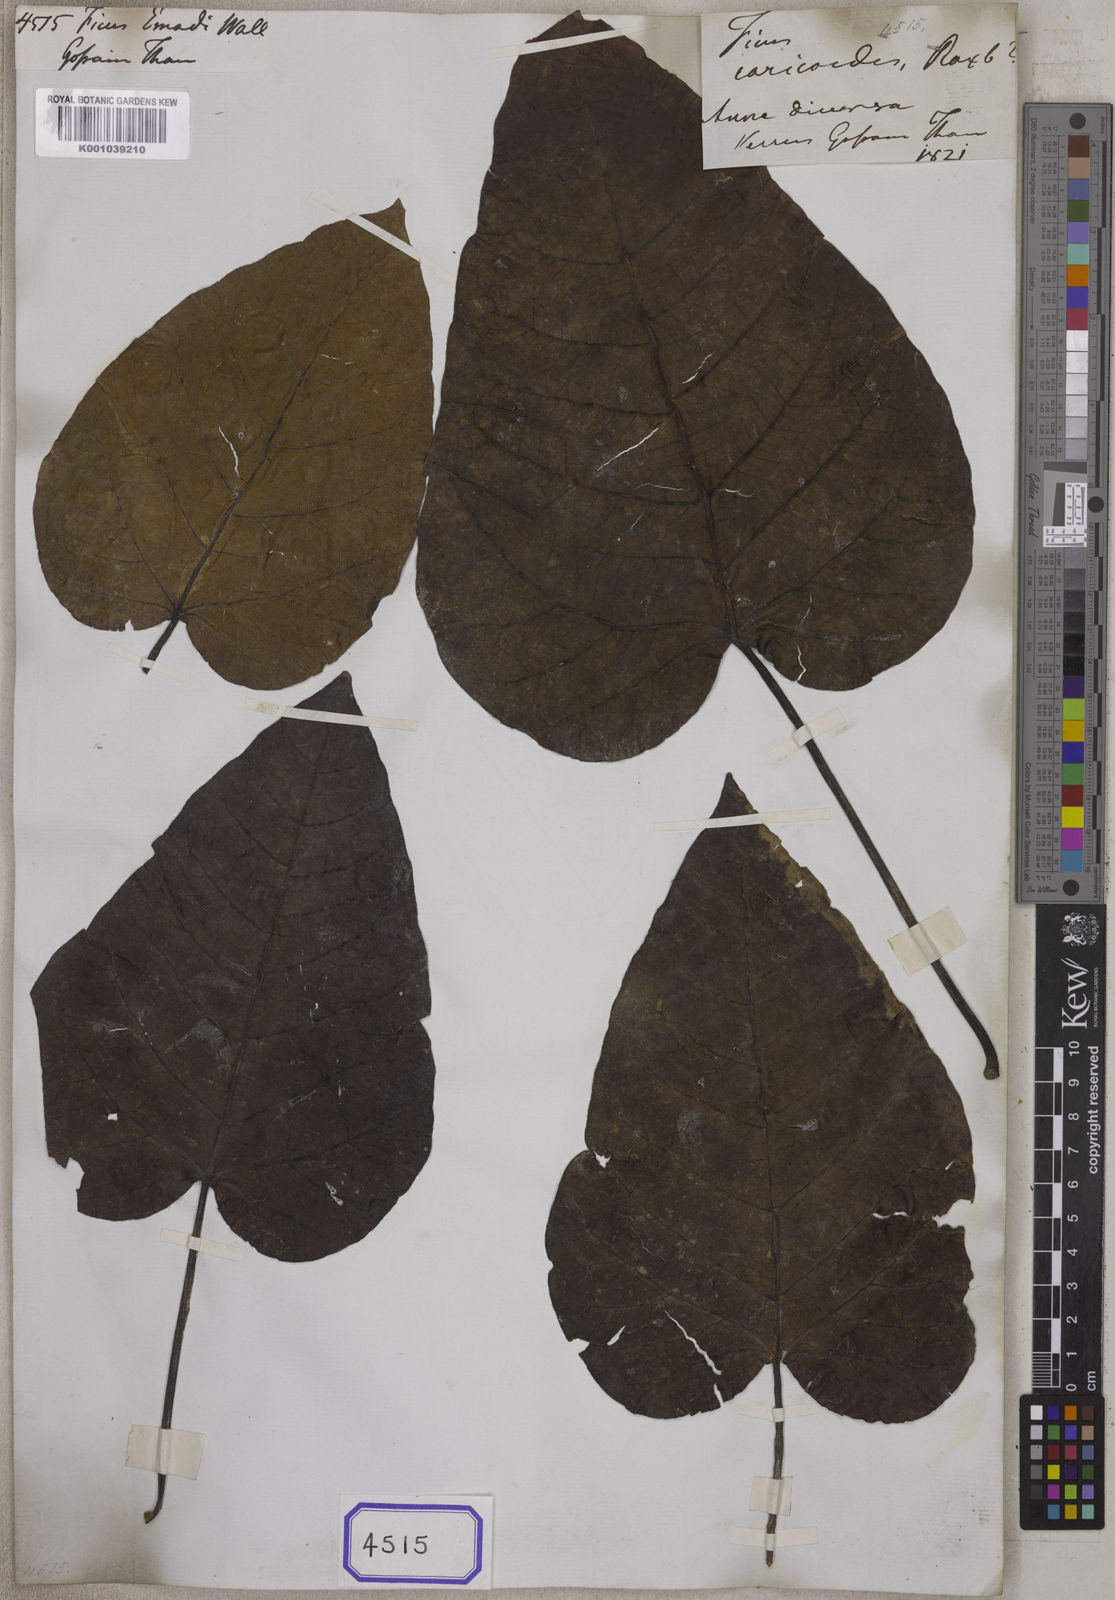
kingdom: Plantae
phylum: Tracheophyta
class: Magnoliopsida
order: Rosales
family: Moraceae
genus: Ficus
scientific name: Ficus
